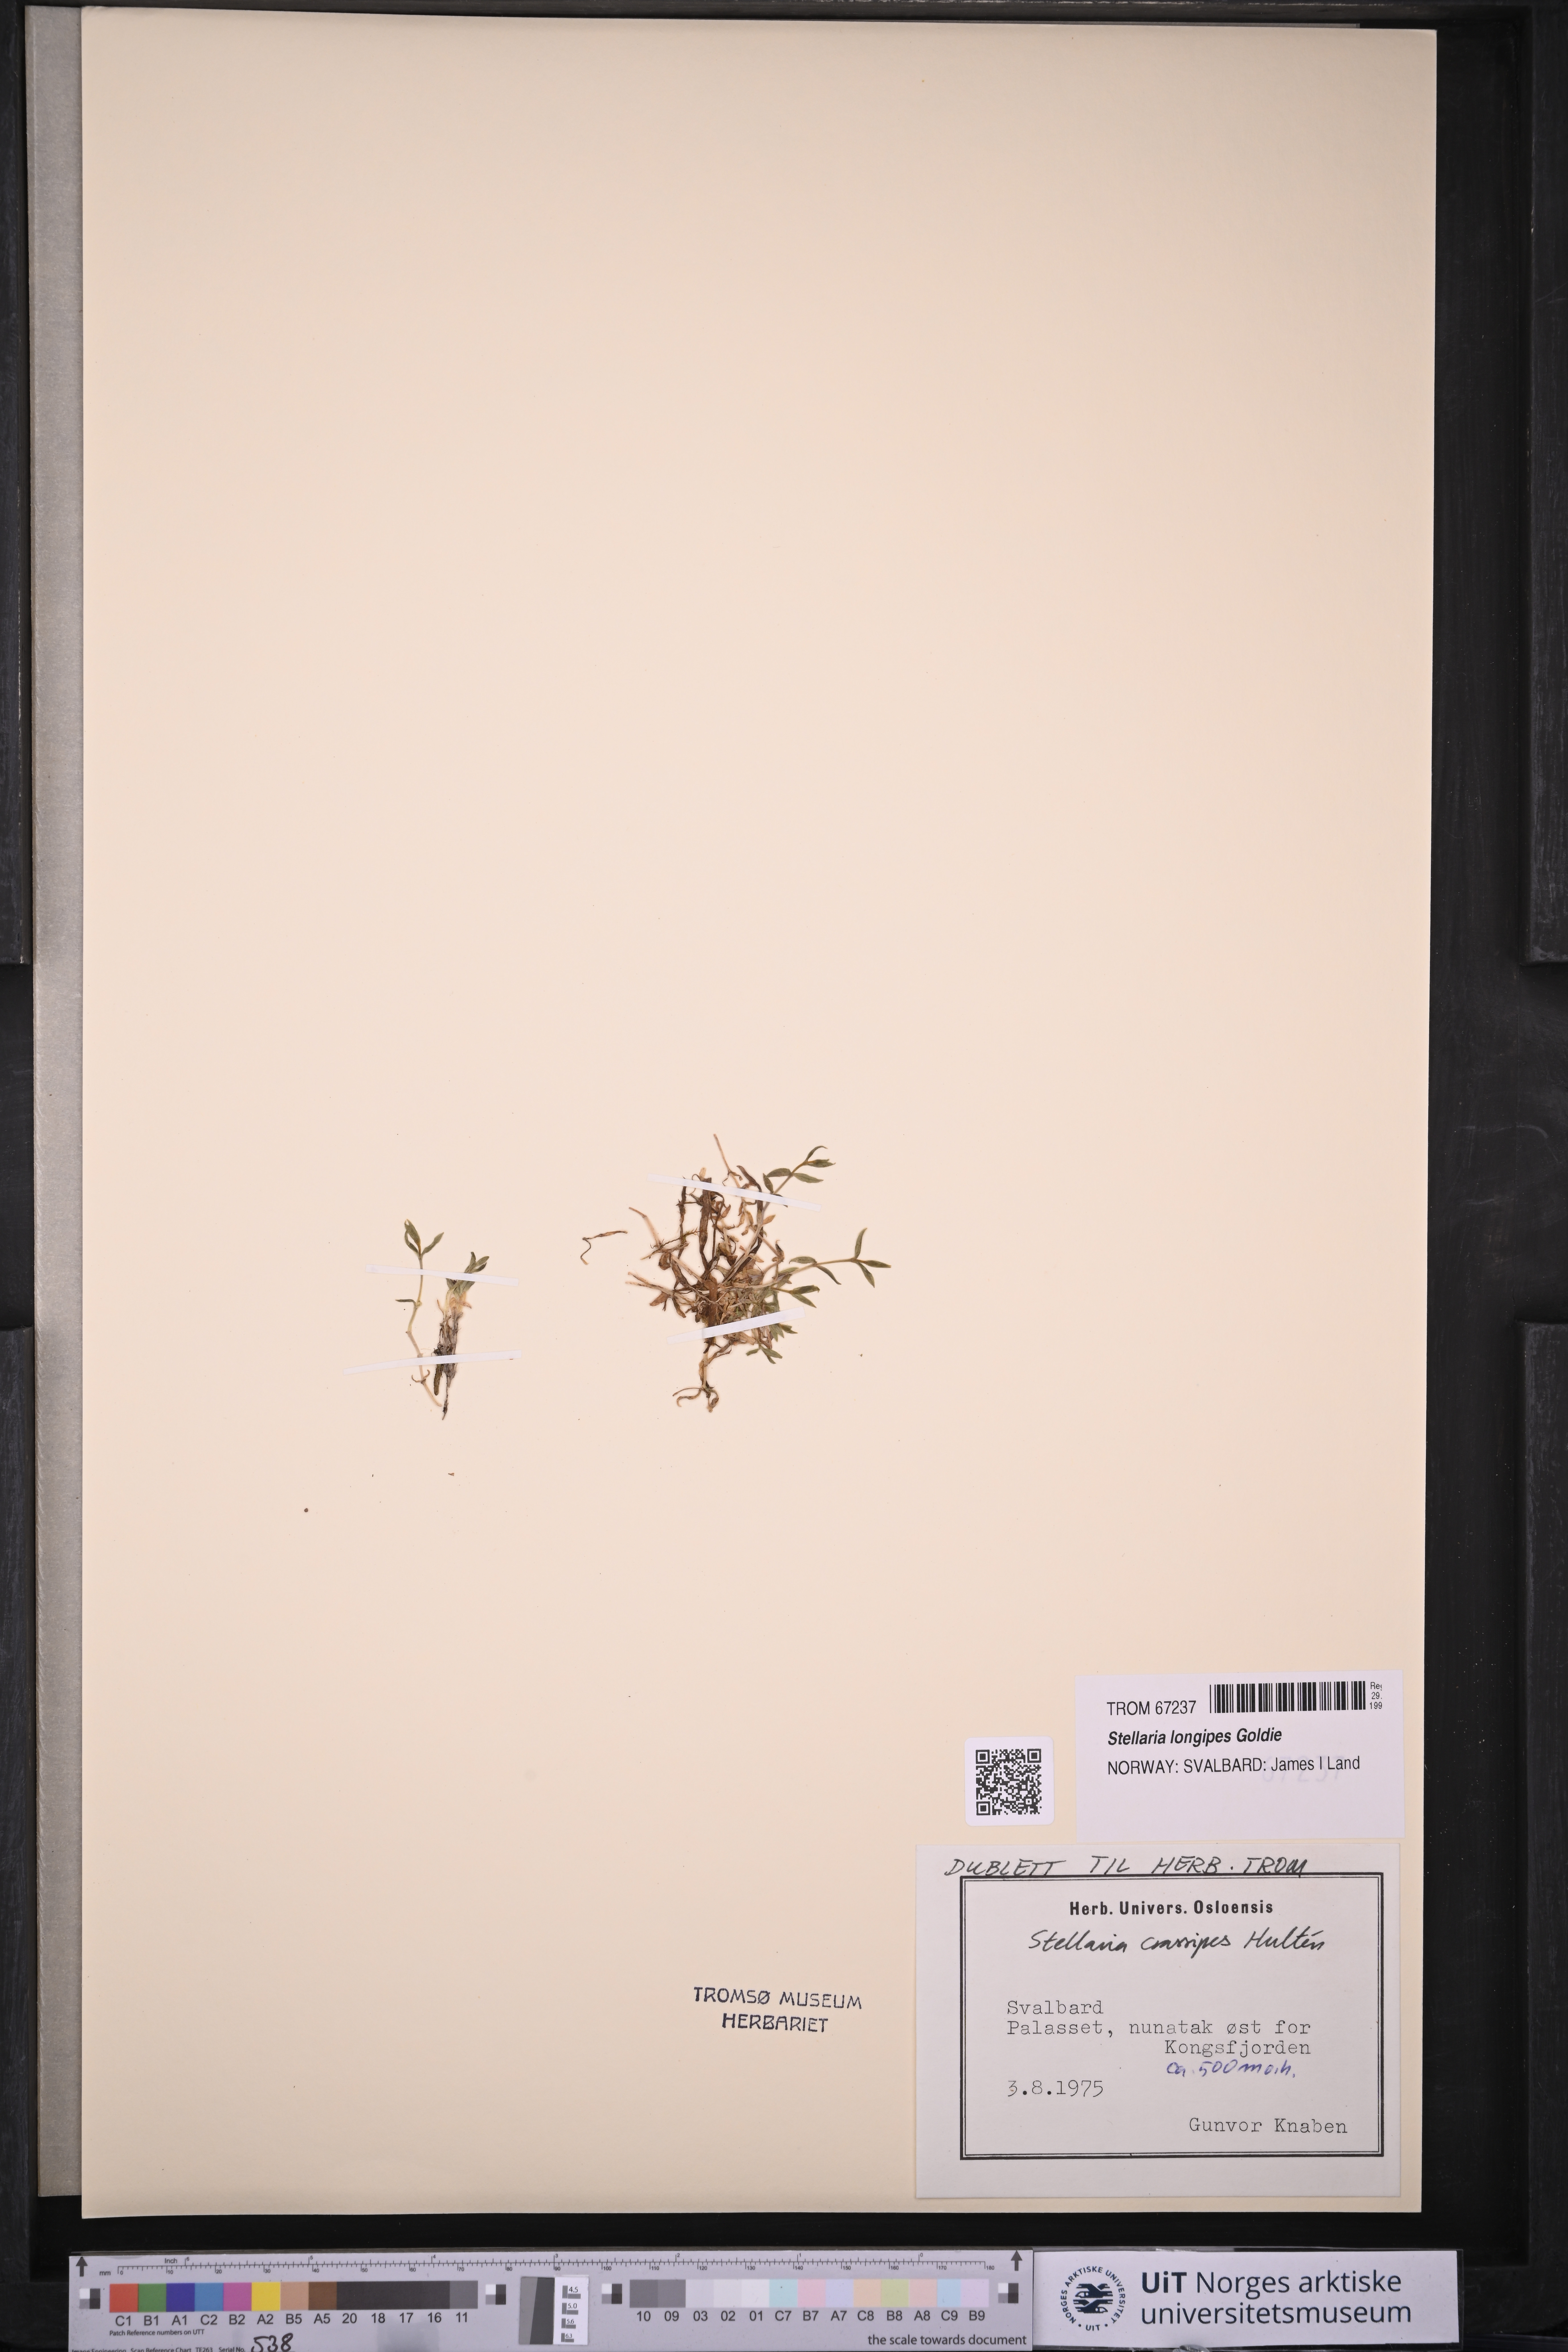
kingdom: Plantae
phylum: Tracheophyta
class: Magnoliopsida
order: Caryophyllales
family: Caryophyllaceae
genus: Stellaria
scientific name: Stellaria longipes
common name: Goldie's starwort
